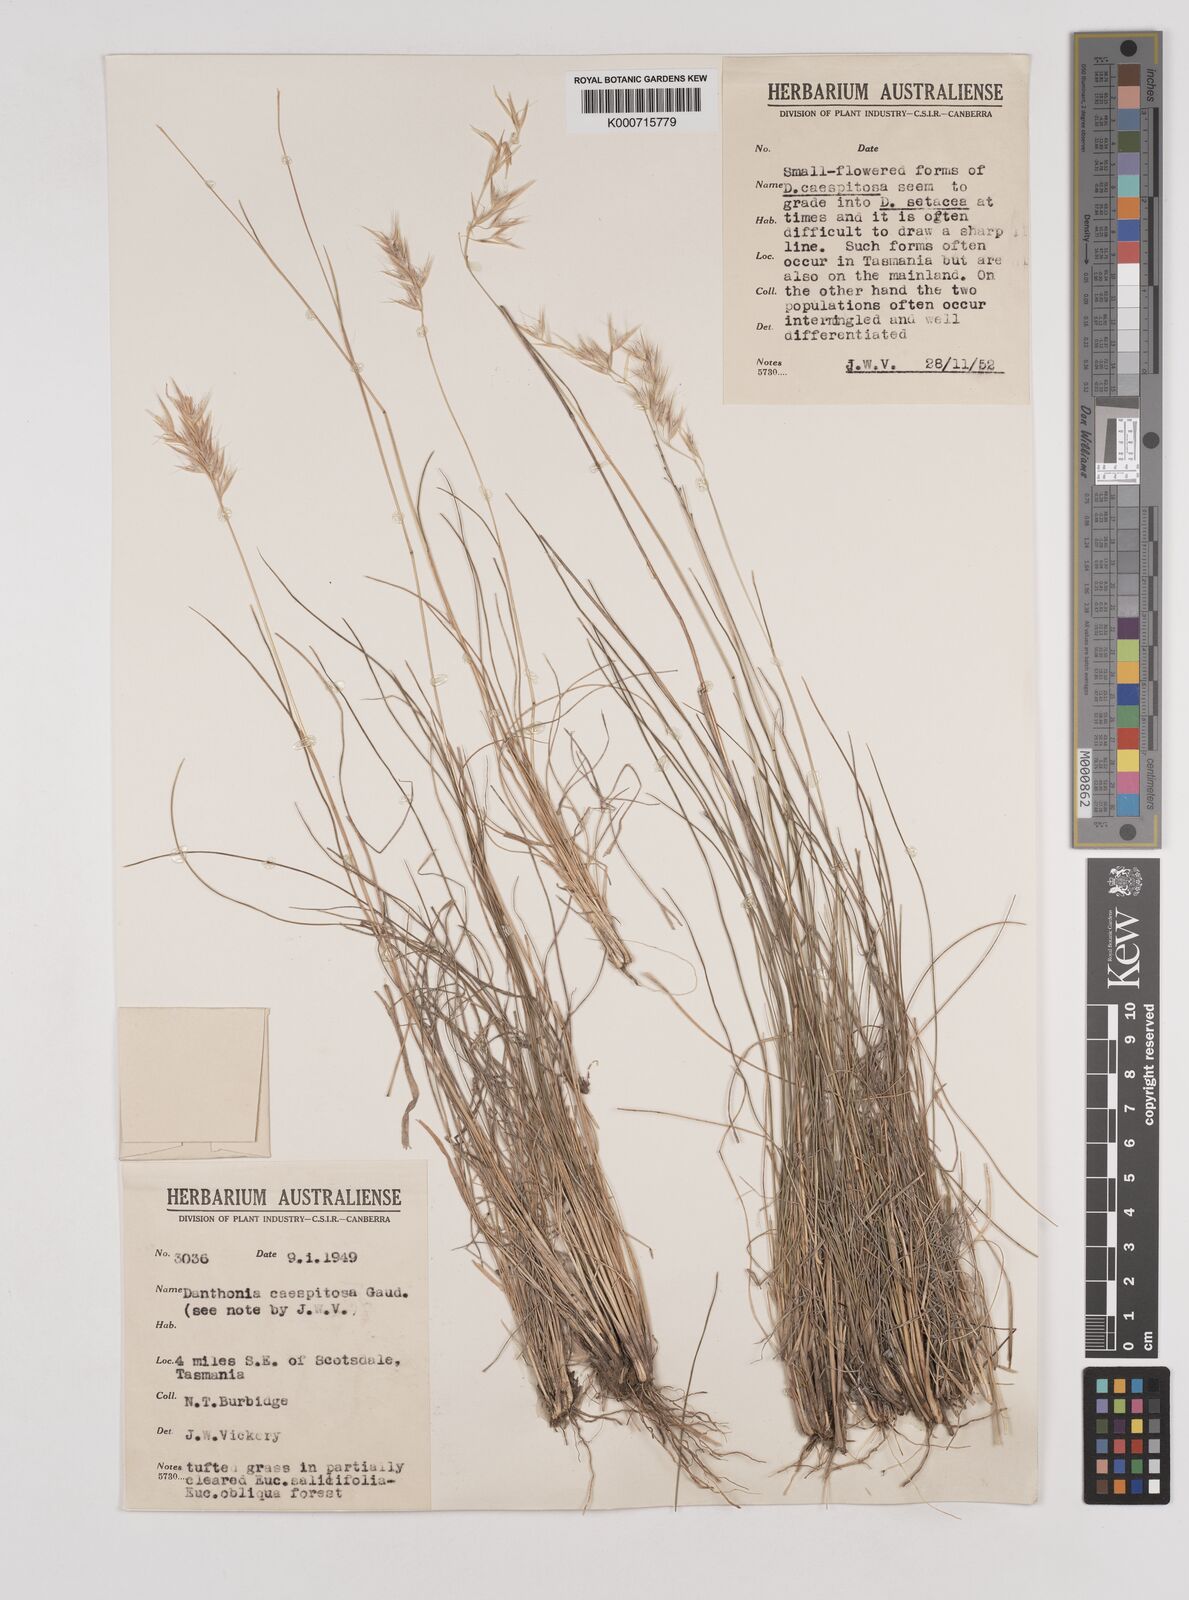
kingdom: Plantae
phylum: Tracheophyta
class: Liliopsida
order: Poales
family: Poaceae
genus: Rytidosperma
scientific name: Rytidosperma caespitosum
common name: Tufted wallaby grass
